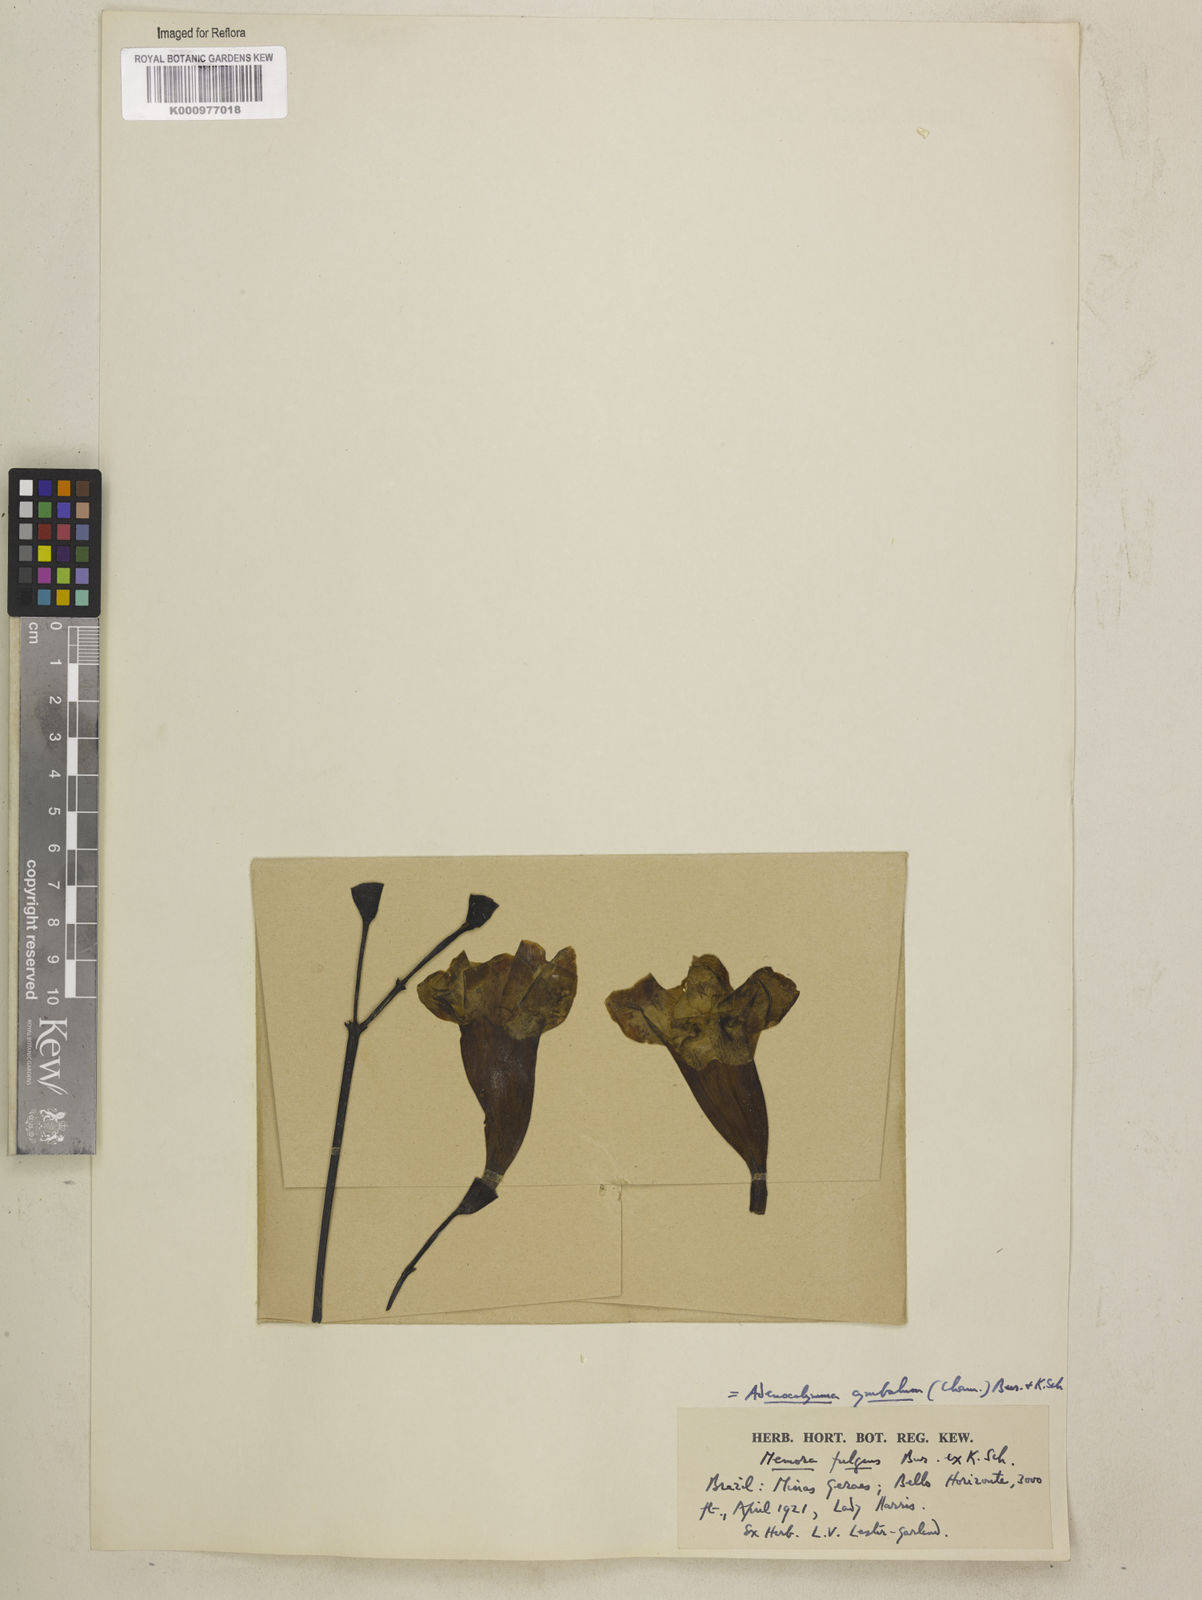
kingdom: Plantae
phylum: Tracheophyta
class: Magnoliopsida
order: Lamiales
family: Bignoniaceae
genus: Adenocalymma
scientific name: Adenocalymma cymbalum
